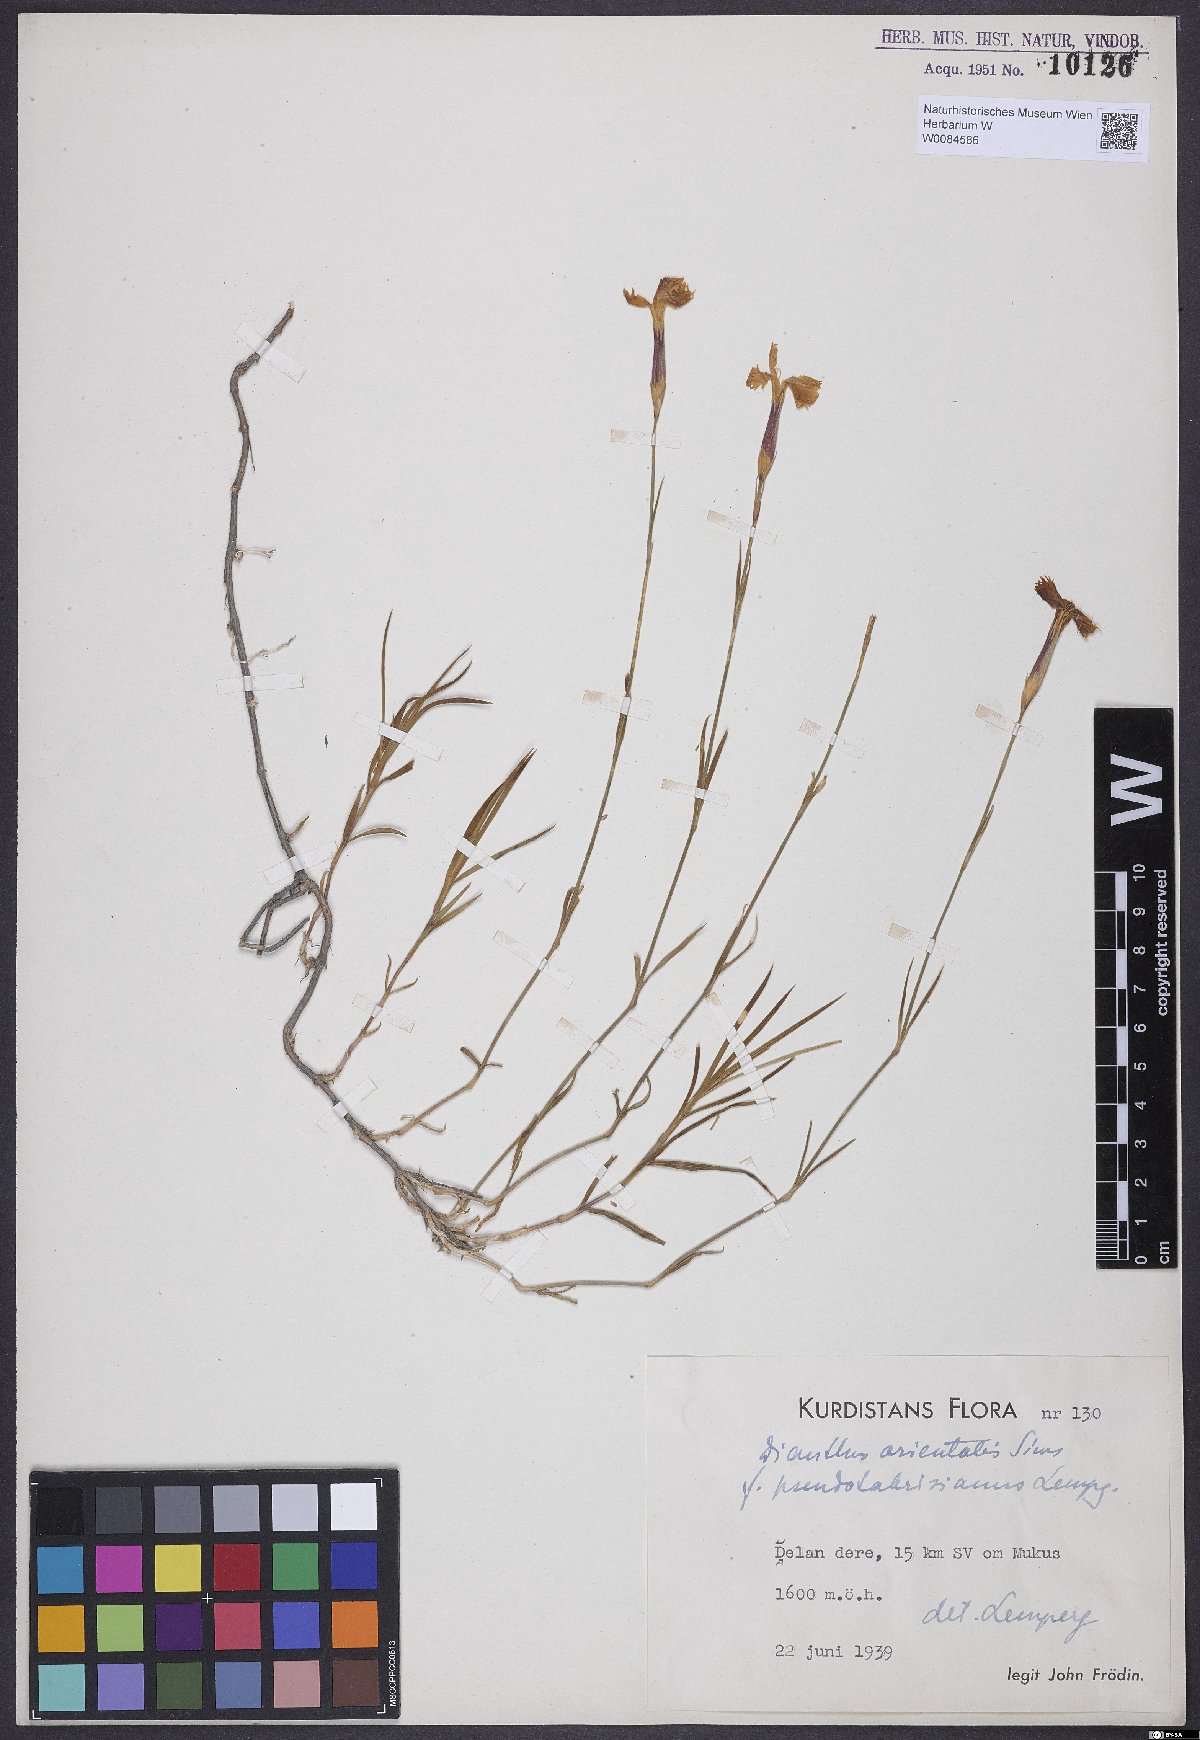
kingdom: Plantae
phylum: Tracheophyta
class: Magnoliopsida
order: Caryophyllales
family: Caryophyllaceae
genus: Dianthus
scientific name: Dianthus orientalis
